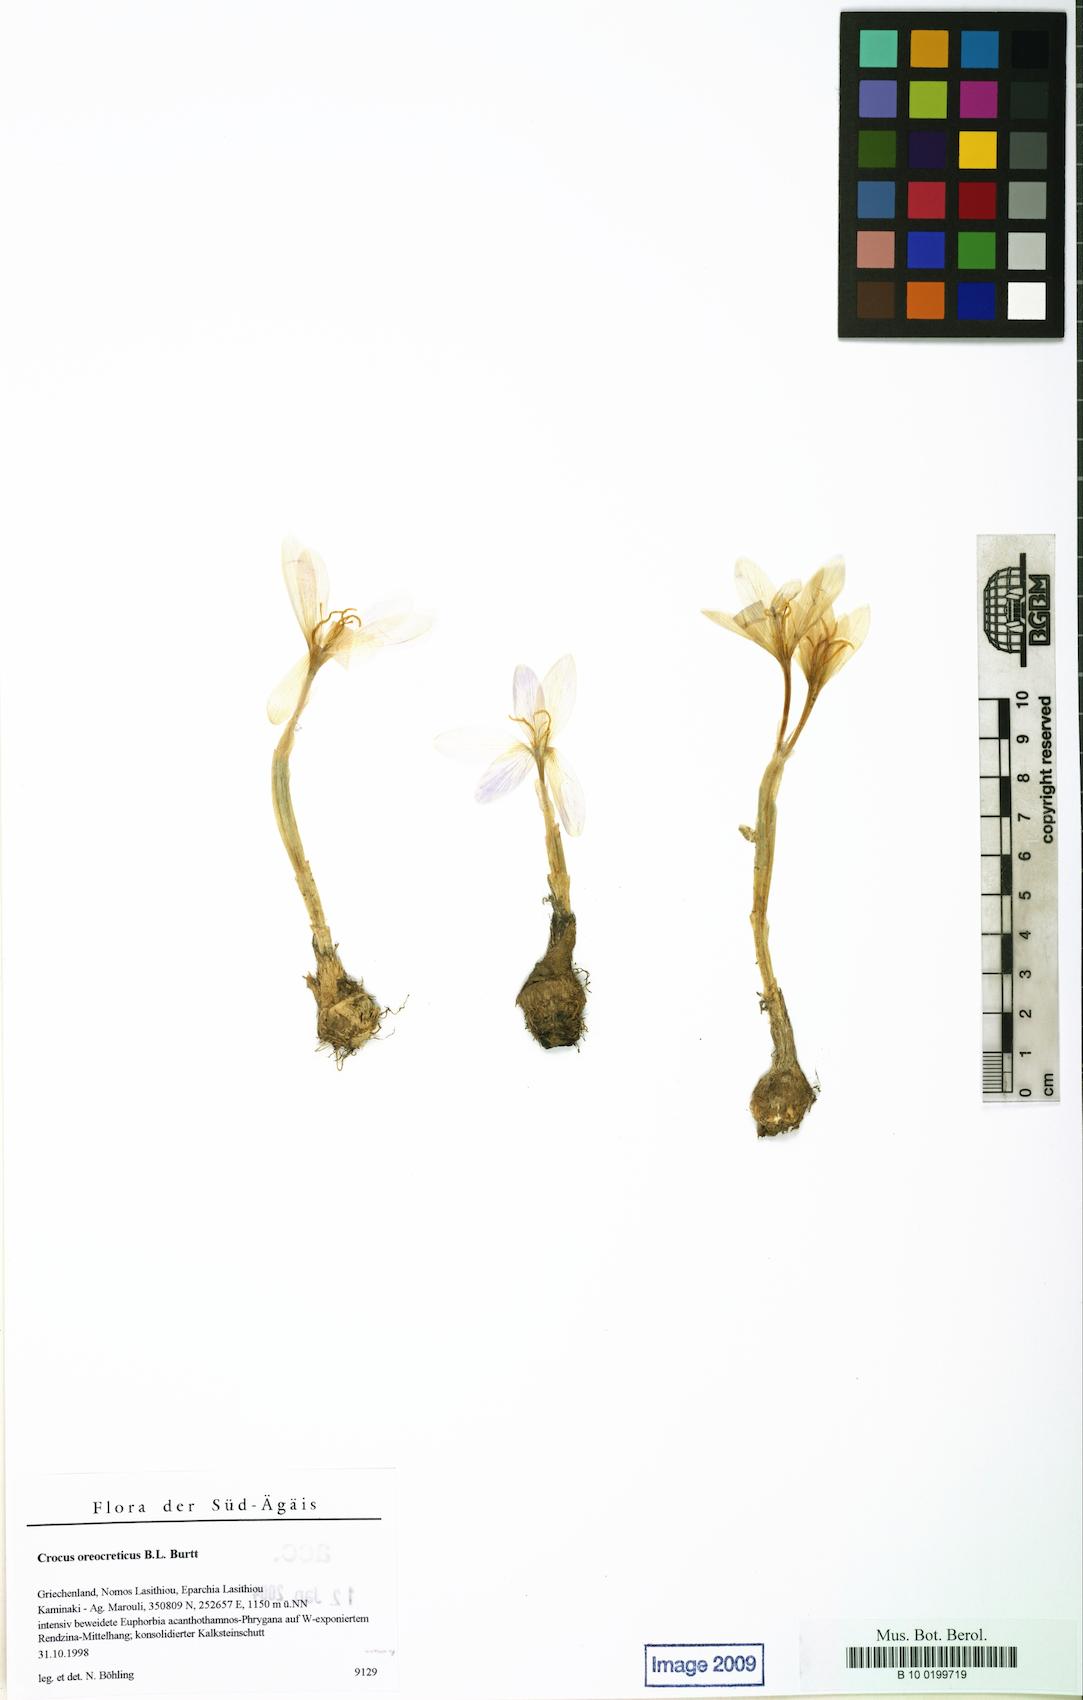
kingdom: Plantae
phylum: Tracheophyta
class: Liliopsida
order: Asparagales
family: Iridaceae
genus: Crocus
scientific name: Crocus oreocreticus
